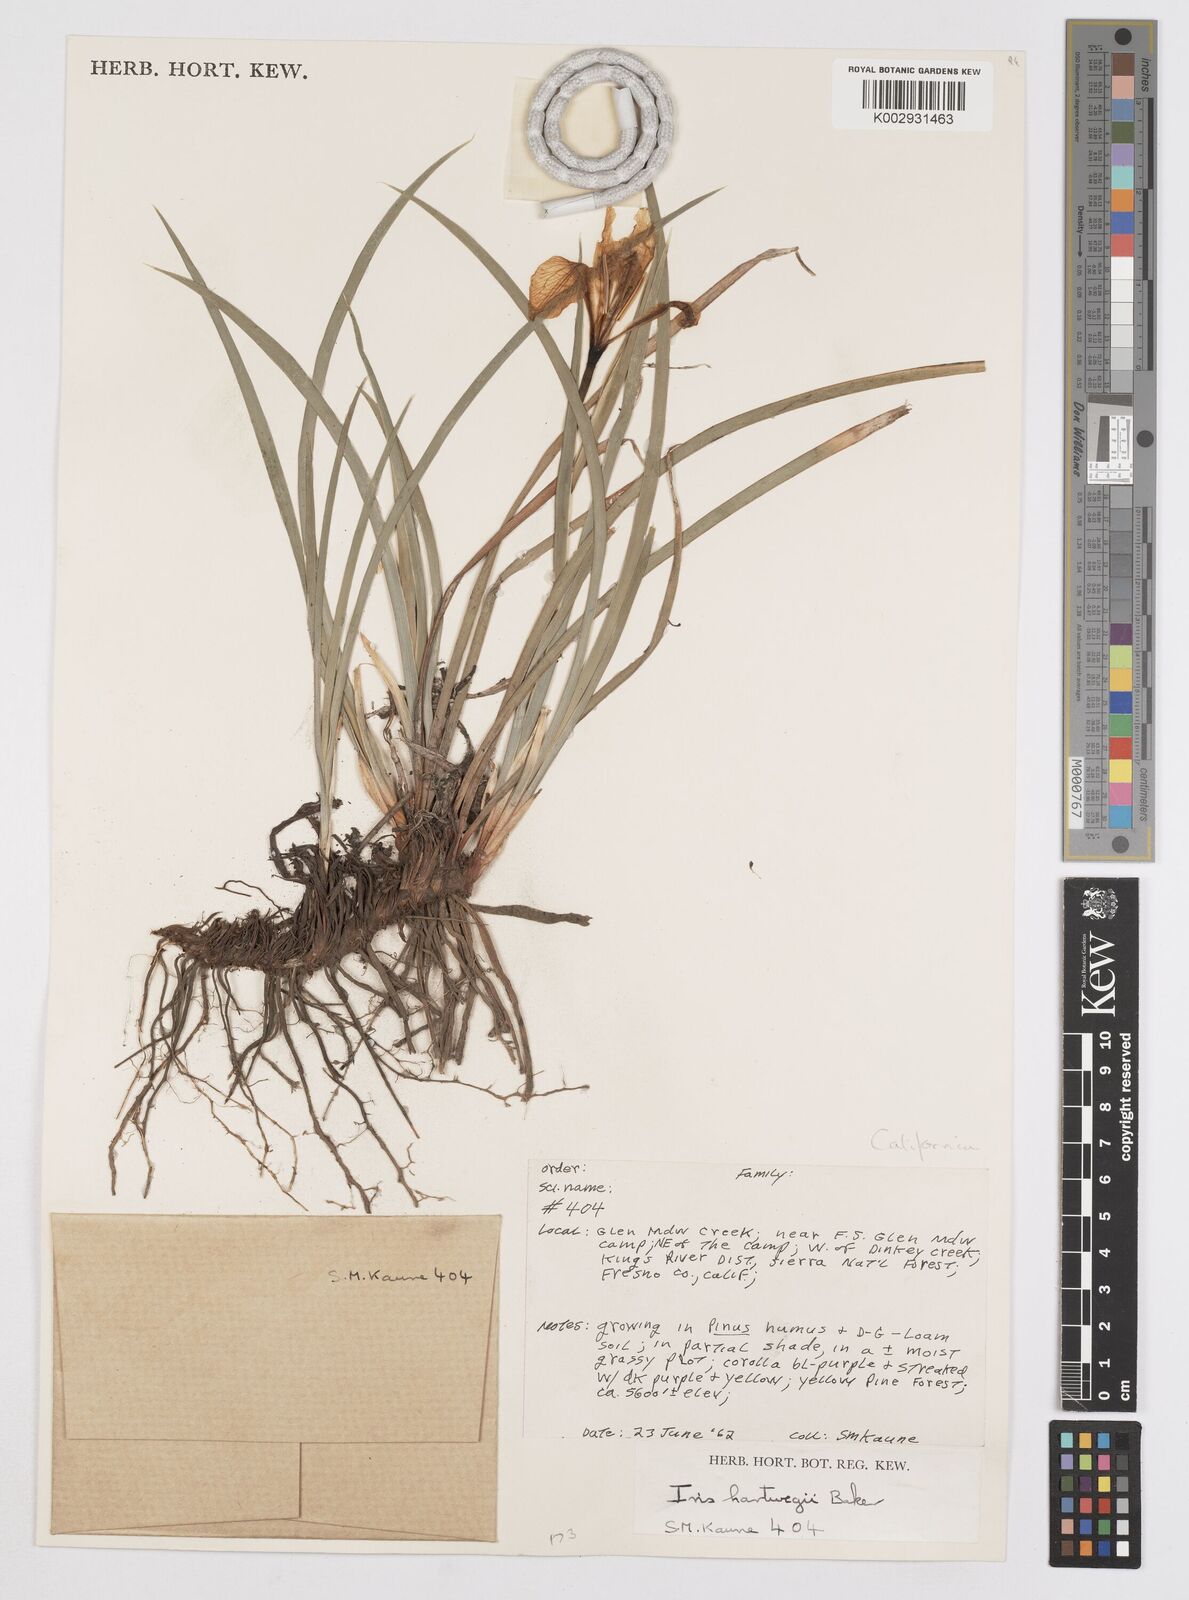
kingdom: Plantae
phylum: Tracheophyta
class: Liliopsida
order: Asparagales
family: Iridaceae
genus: Iris
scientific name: Iris hartwegii
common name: Sierra iris
